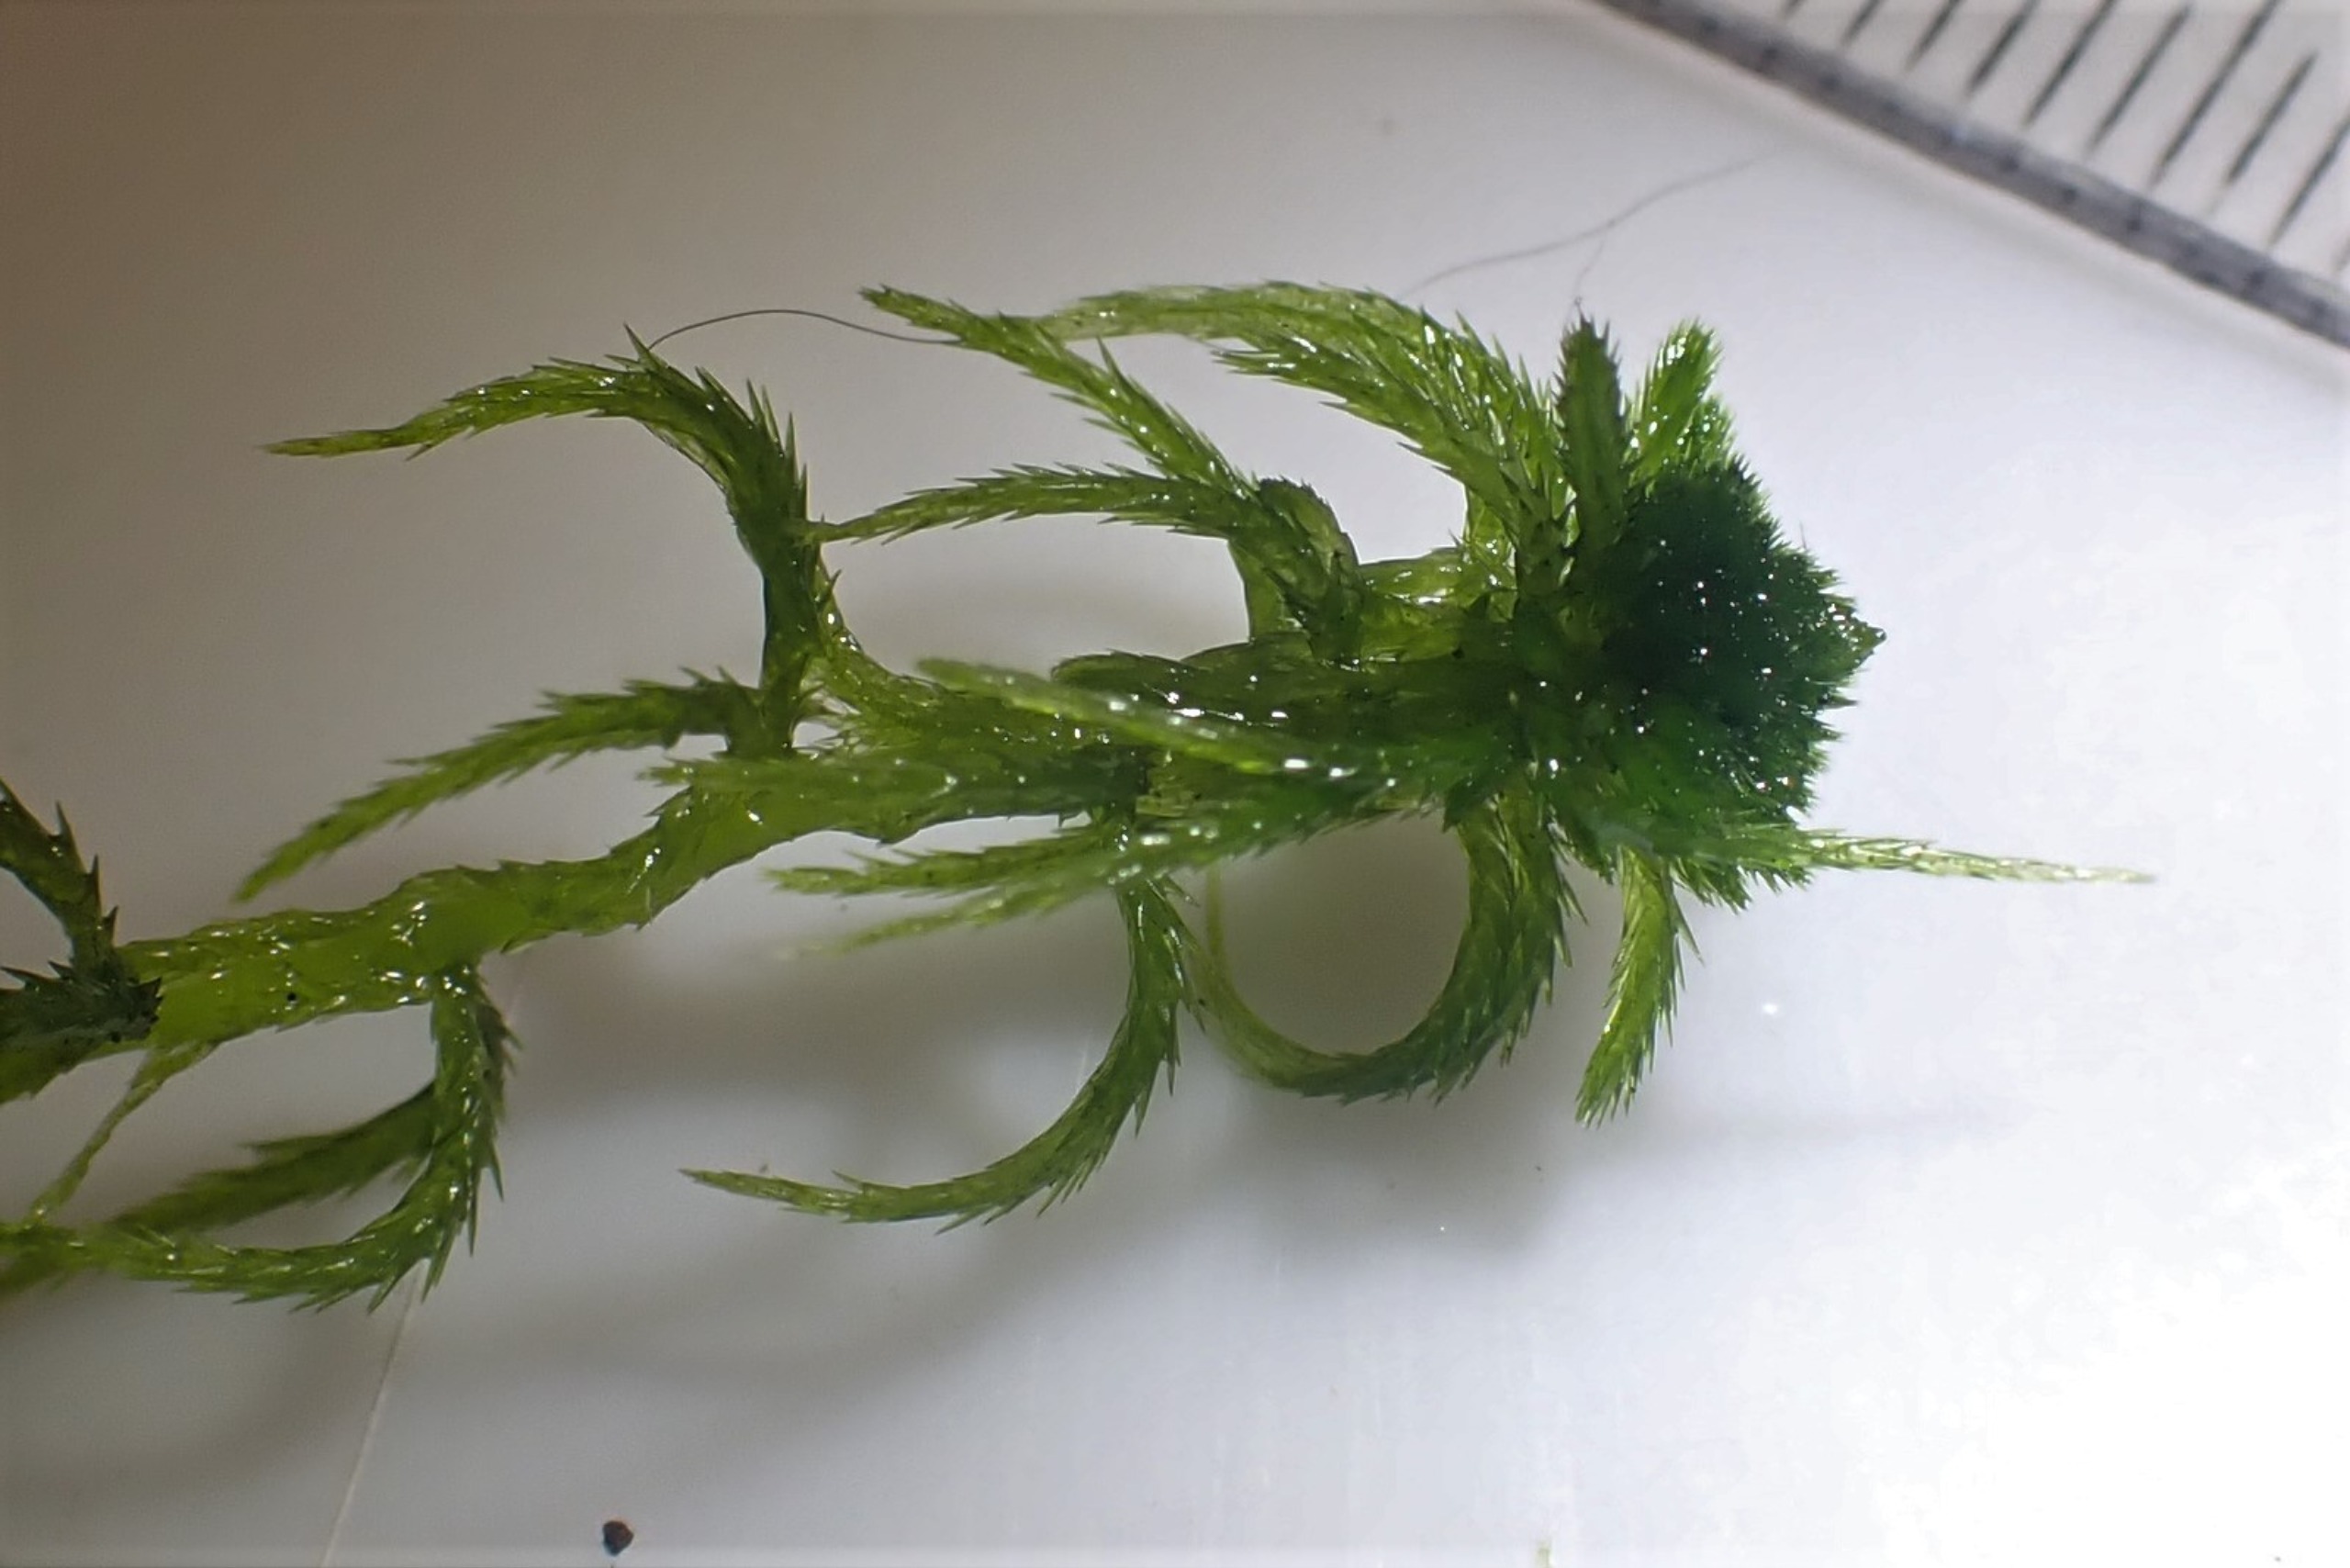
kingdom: Plantae
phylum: Bryophyta
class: Sphagnopsida
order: Sphagnales
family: Sphagnaceae
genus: Sphagnum
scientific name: Sphagnum fallax
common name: Brodspids-tørvemos
